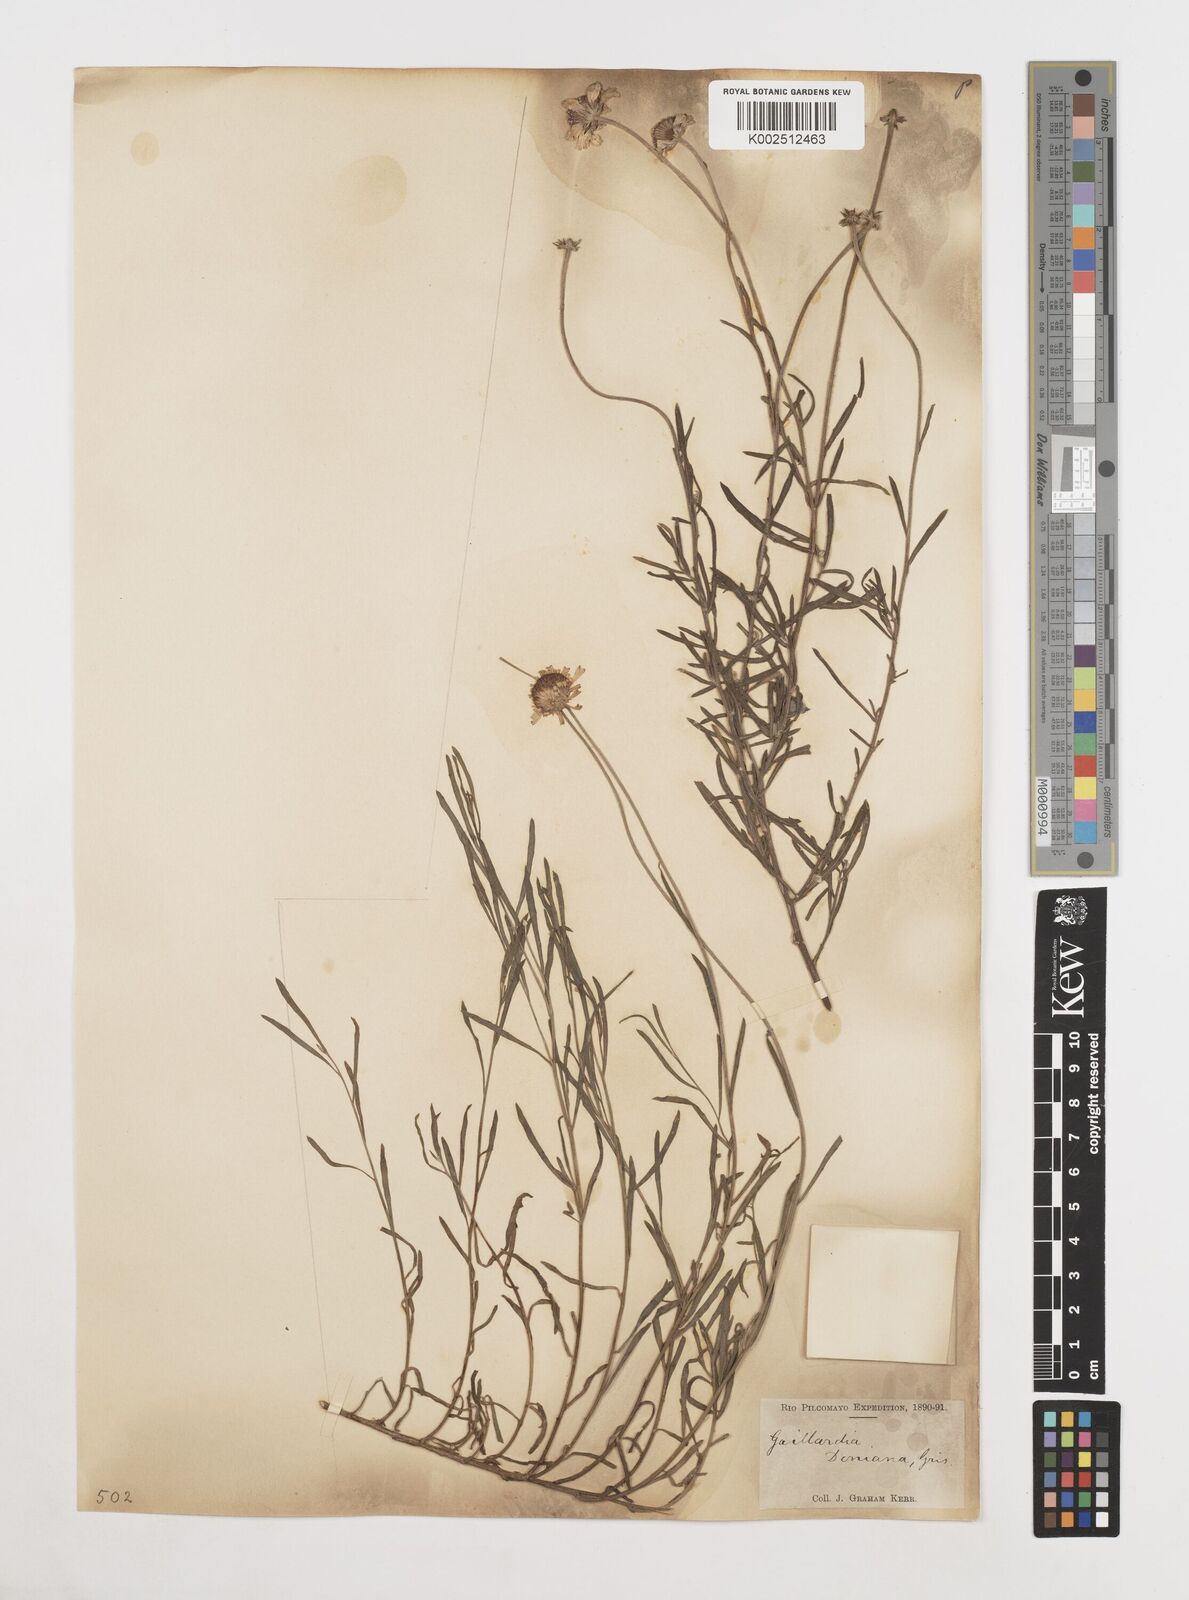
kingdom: Plantae
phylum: Tracheophyta
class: Magnoliopsida
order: Asterales
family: Asteraceae
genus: Gaillardia
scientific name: Gaillardia
